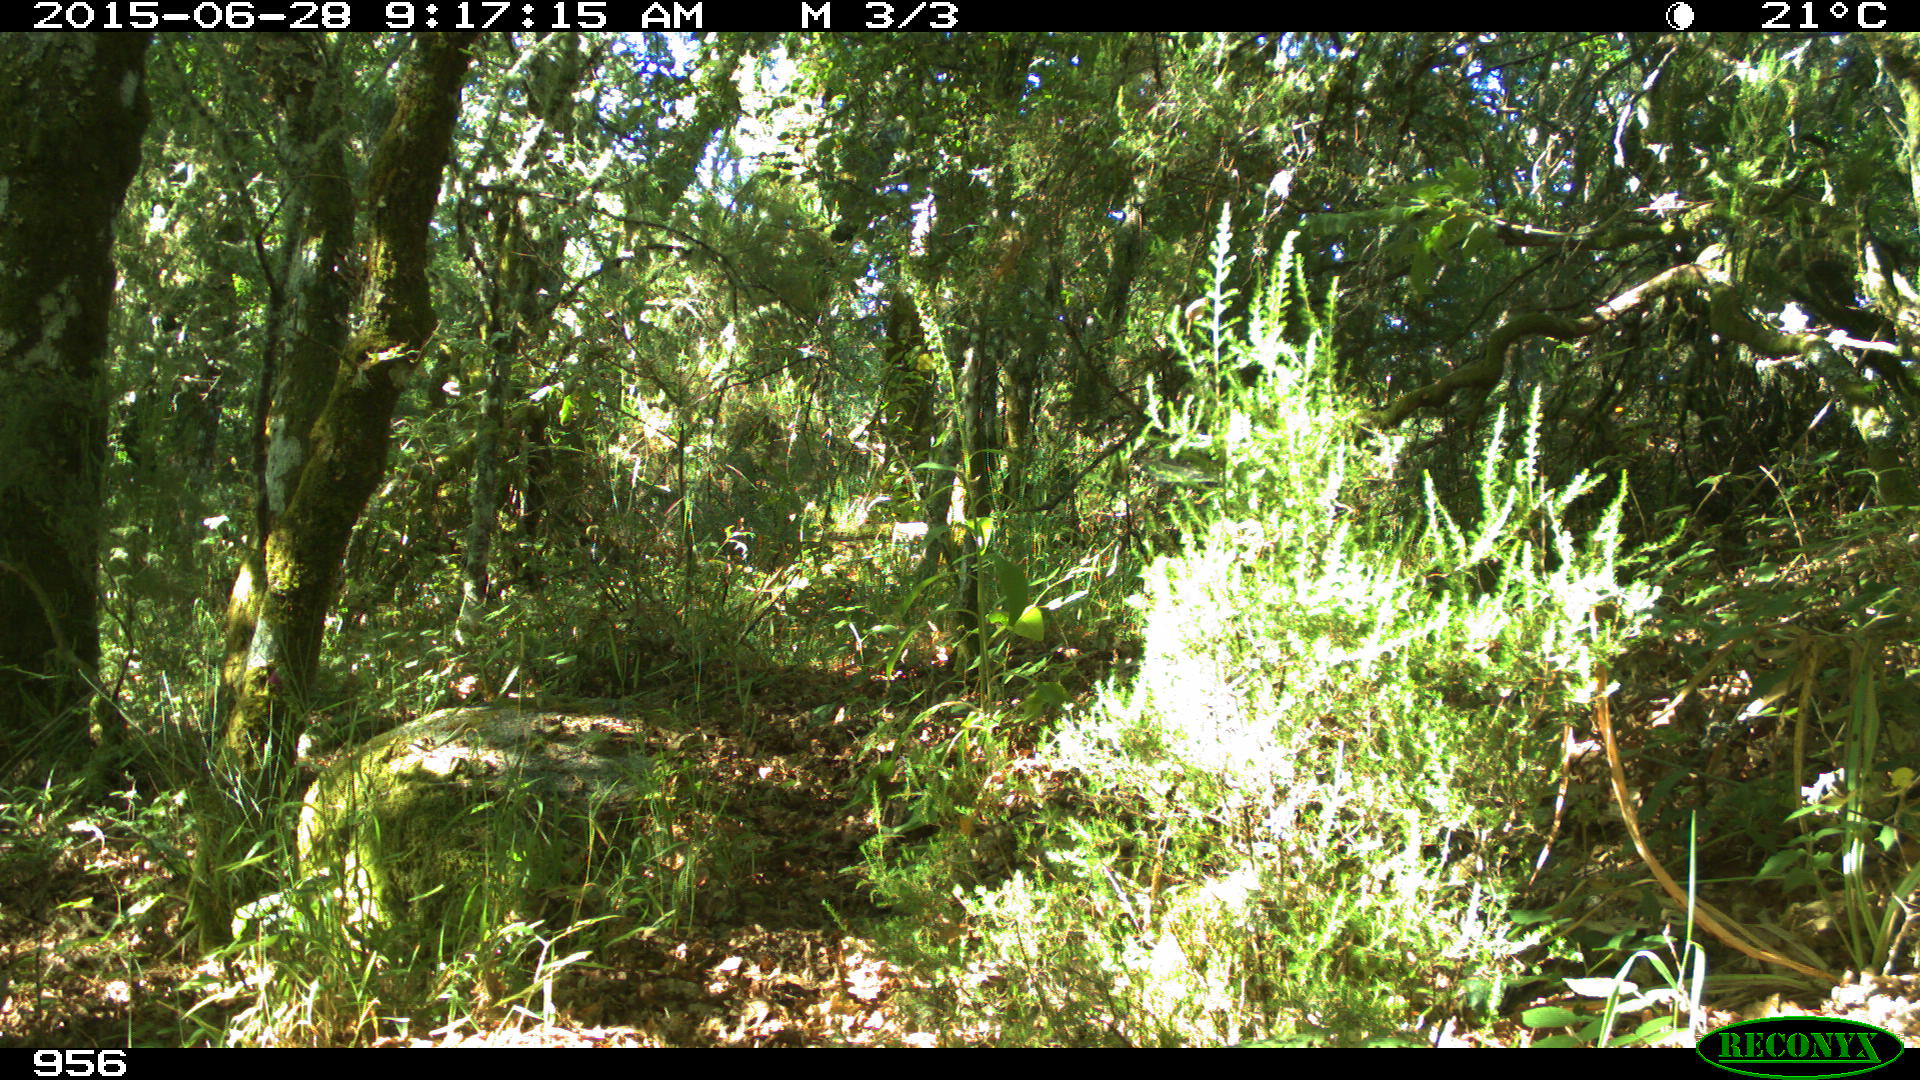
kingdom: Animalia
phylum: Chordata
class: Mammalia
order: Carnivora
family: Canidae
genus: Canis
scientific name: Canis lupus
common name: Gray wolf
